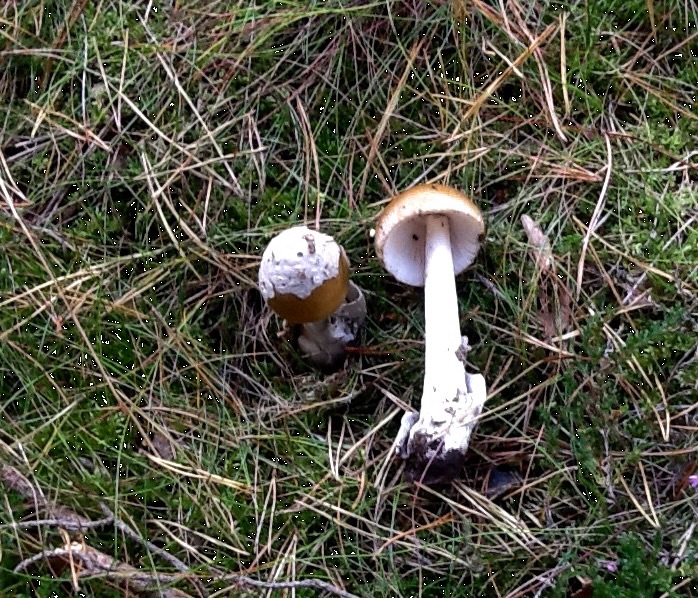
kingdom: Fungi
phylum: Basidiomycota
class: Agaricomycetes
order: Agaricales
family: Amanitaceae
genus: Amanita
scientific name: Amanita submembranacea
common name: gråspættet kam-fluesvamp
